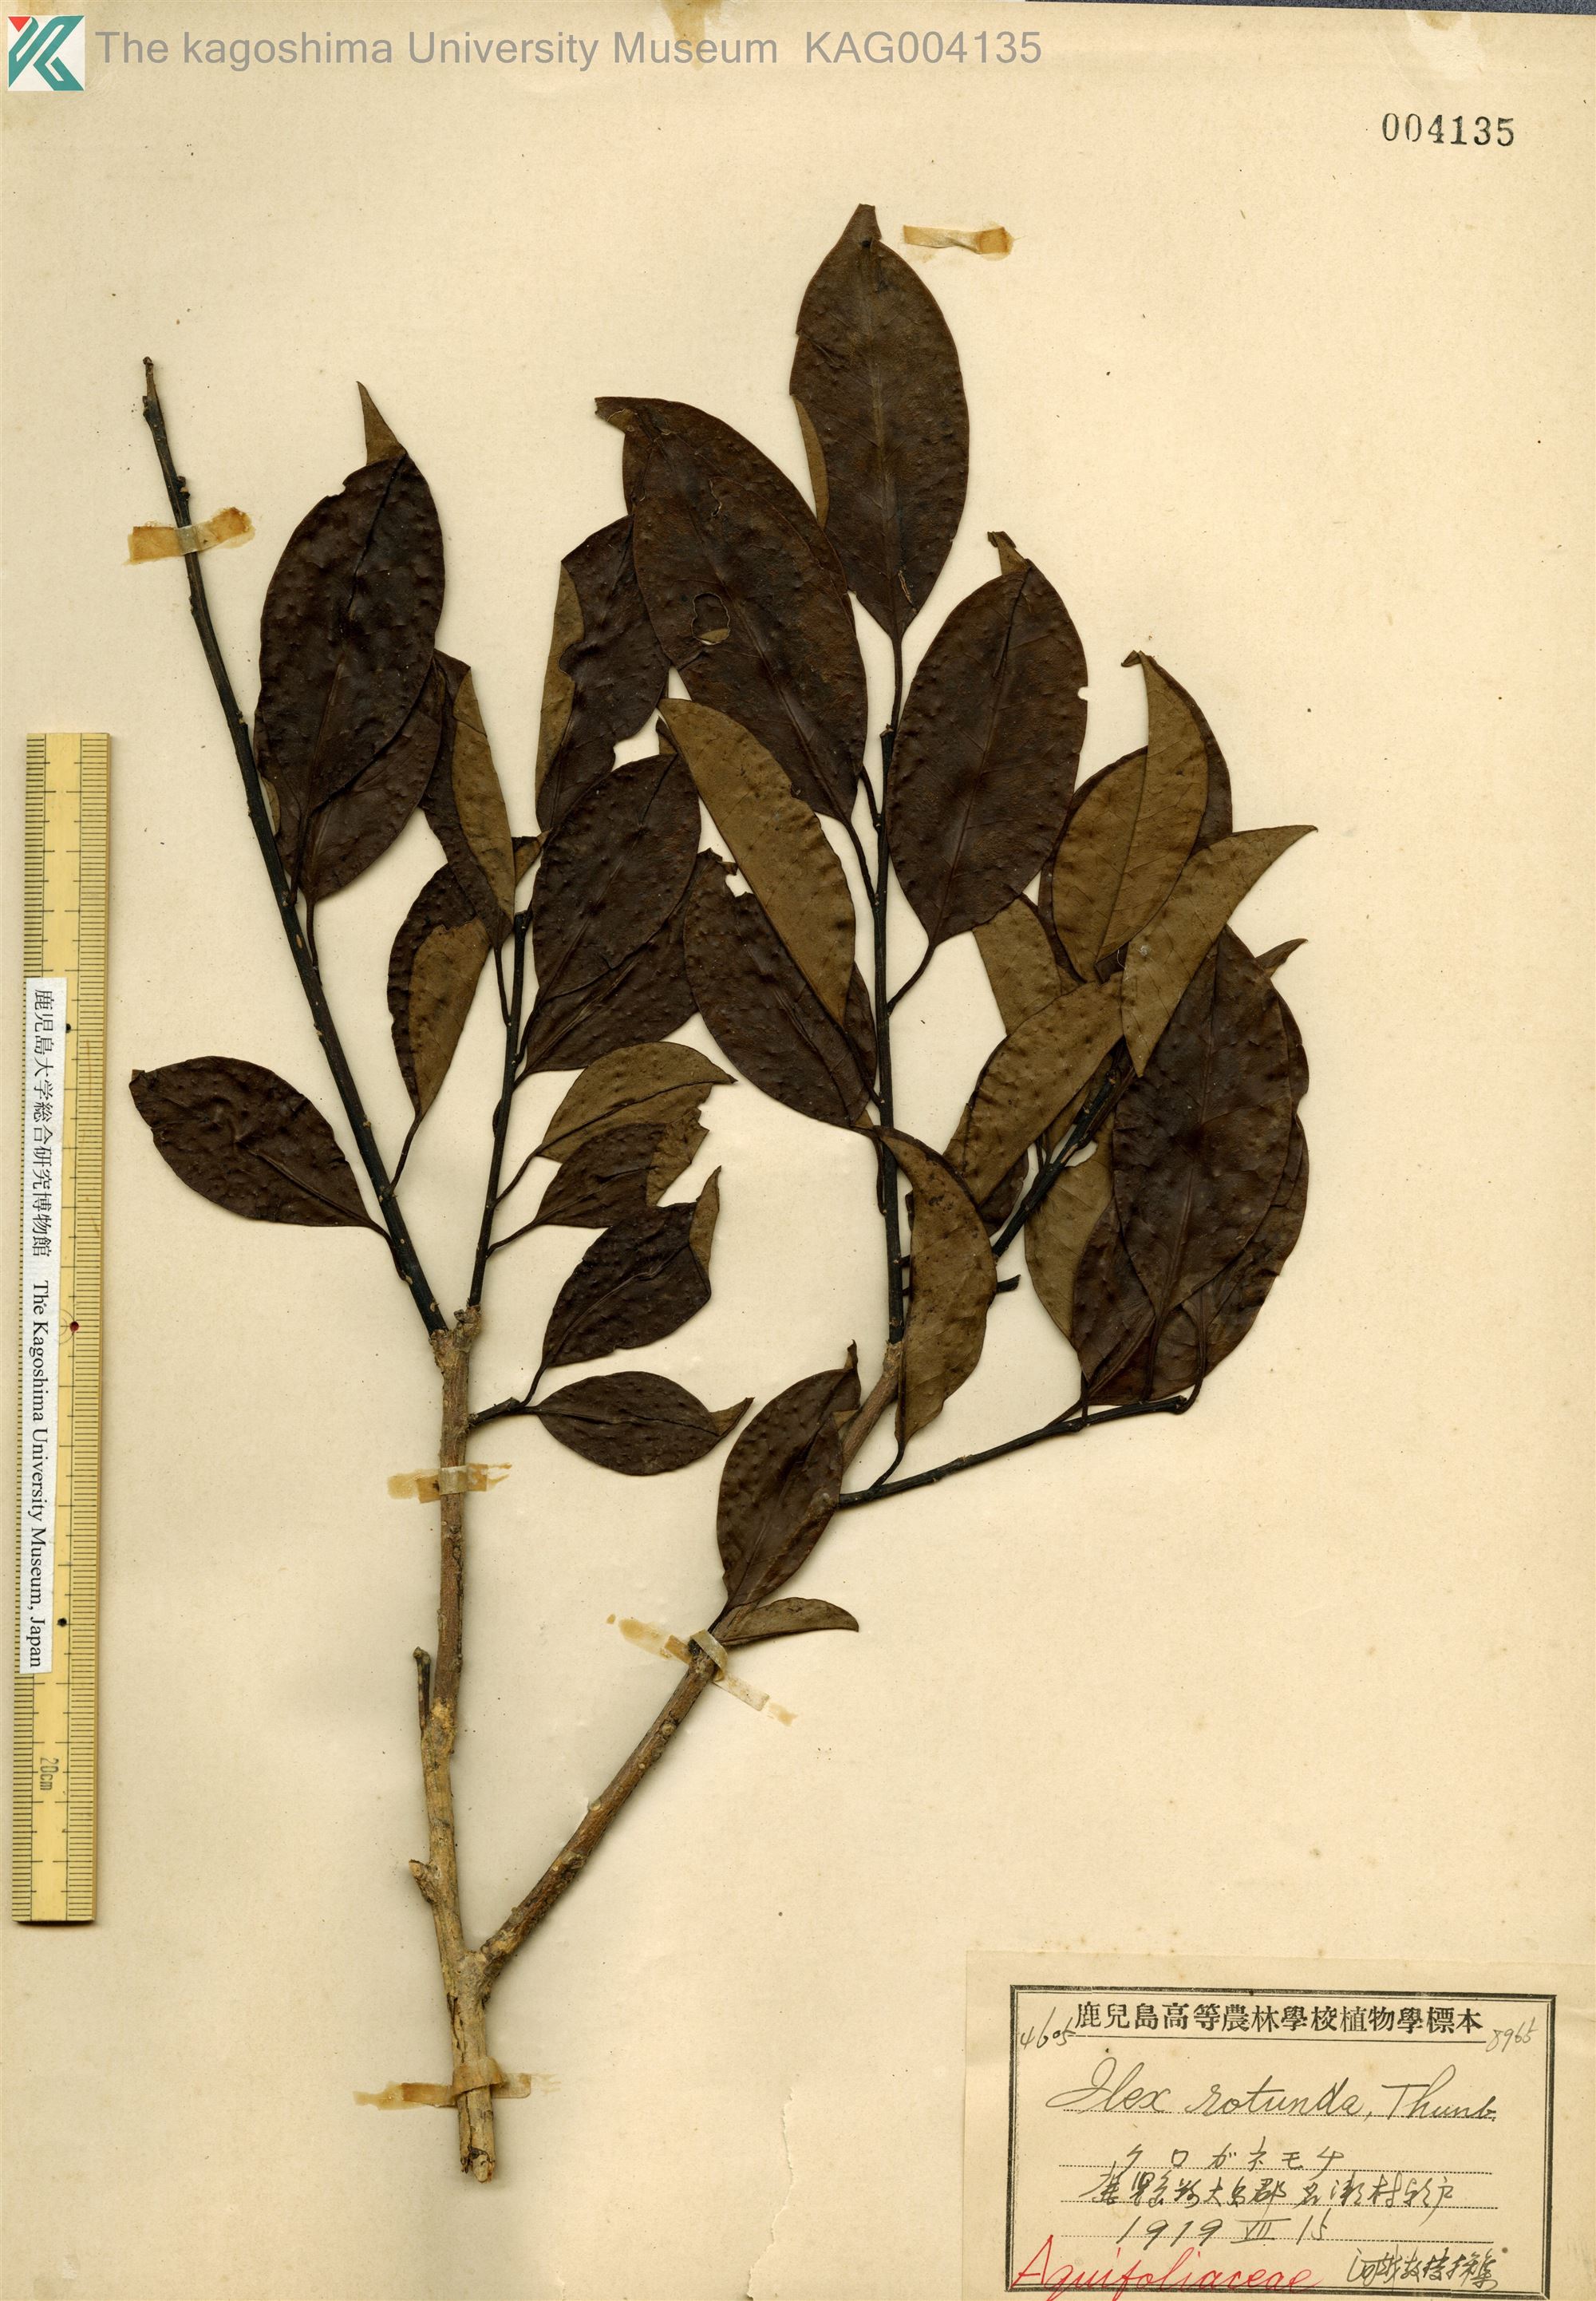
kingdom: Plantae
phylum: Tracheophyta
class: Magnoliopsida
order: Aquifoliales
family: Aquifoliaceae
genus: Ilex
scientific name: Ilex rotunda
